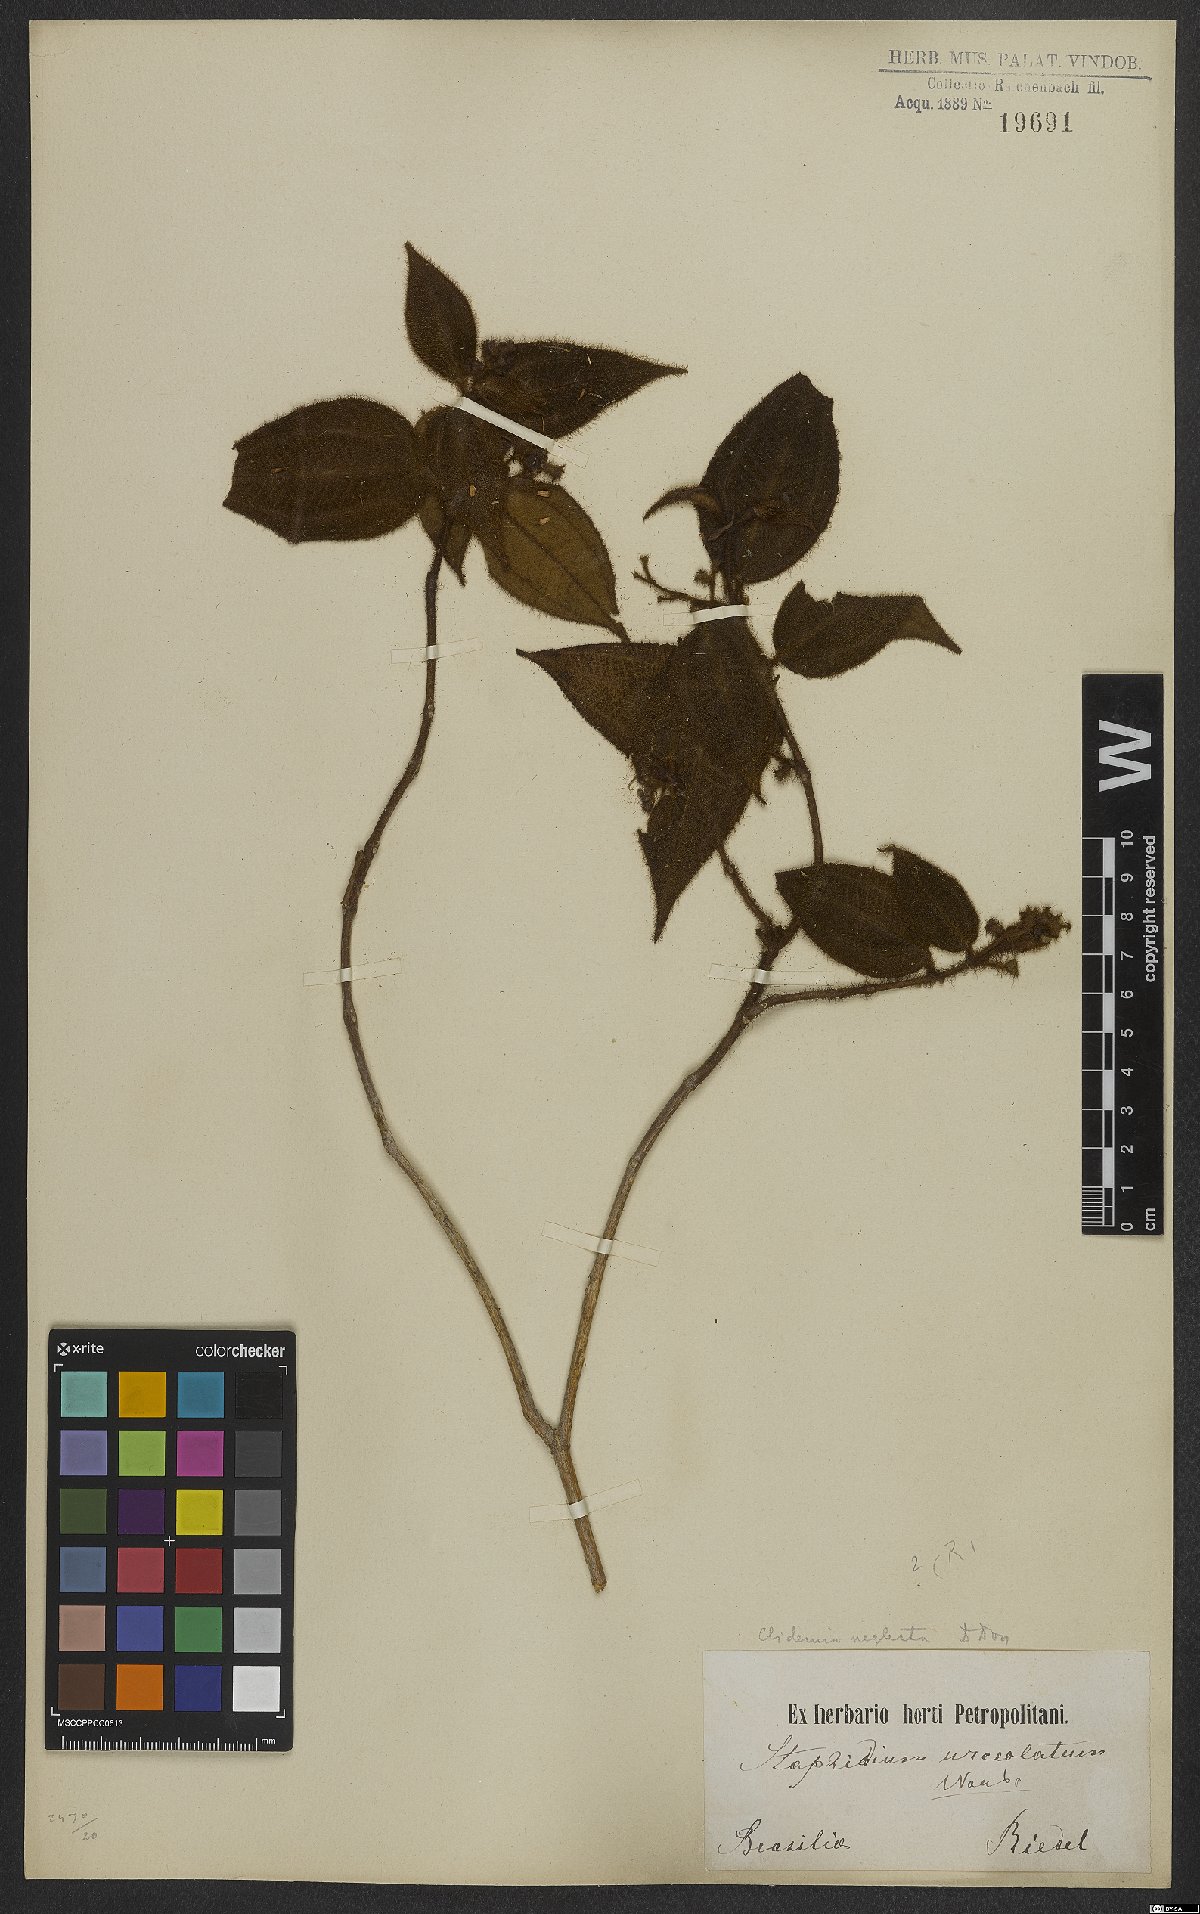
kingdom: Plantae
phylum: Tracheophyta
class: Magnoliopsida
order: Myrtales
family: Melastomataceae
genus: Miconia
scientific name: Miconia dependens
